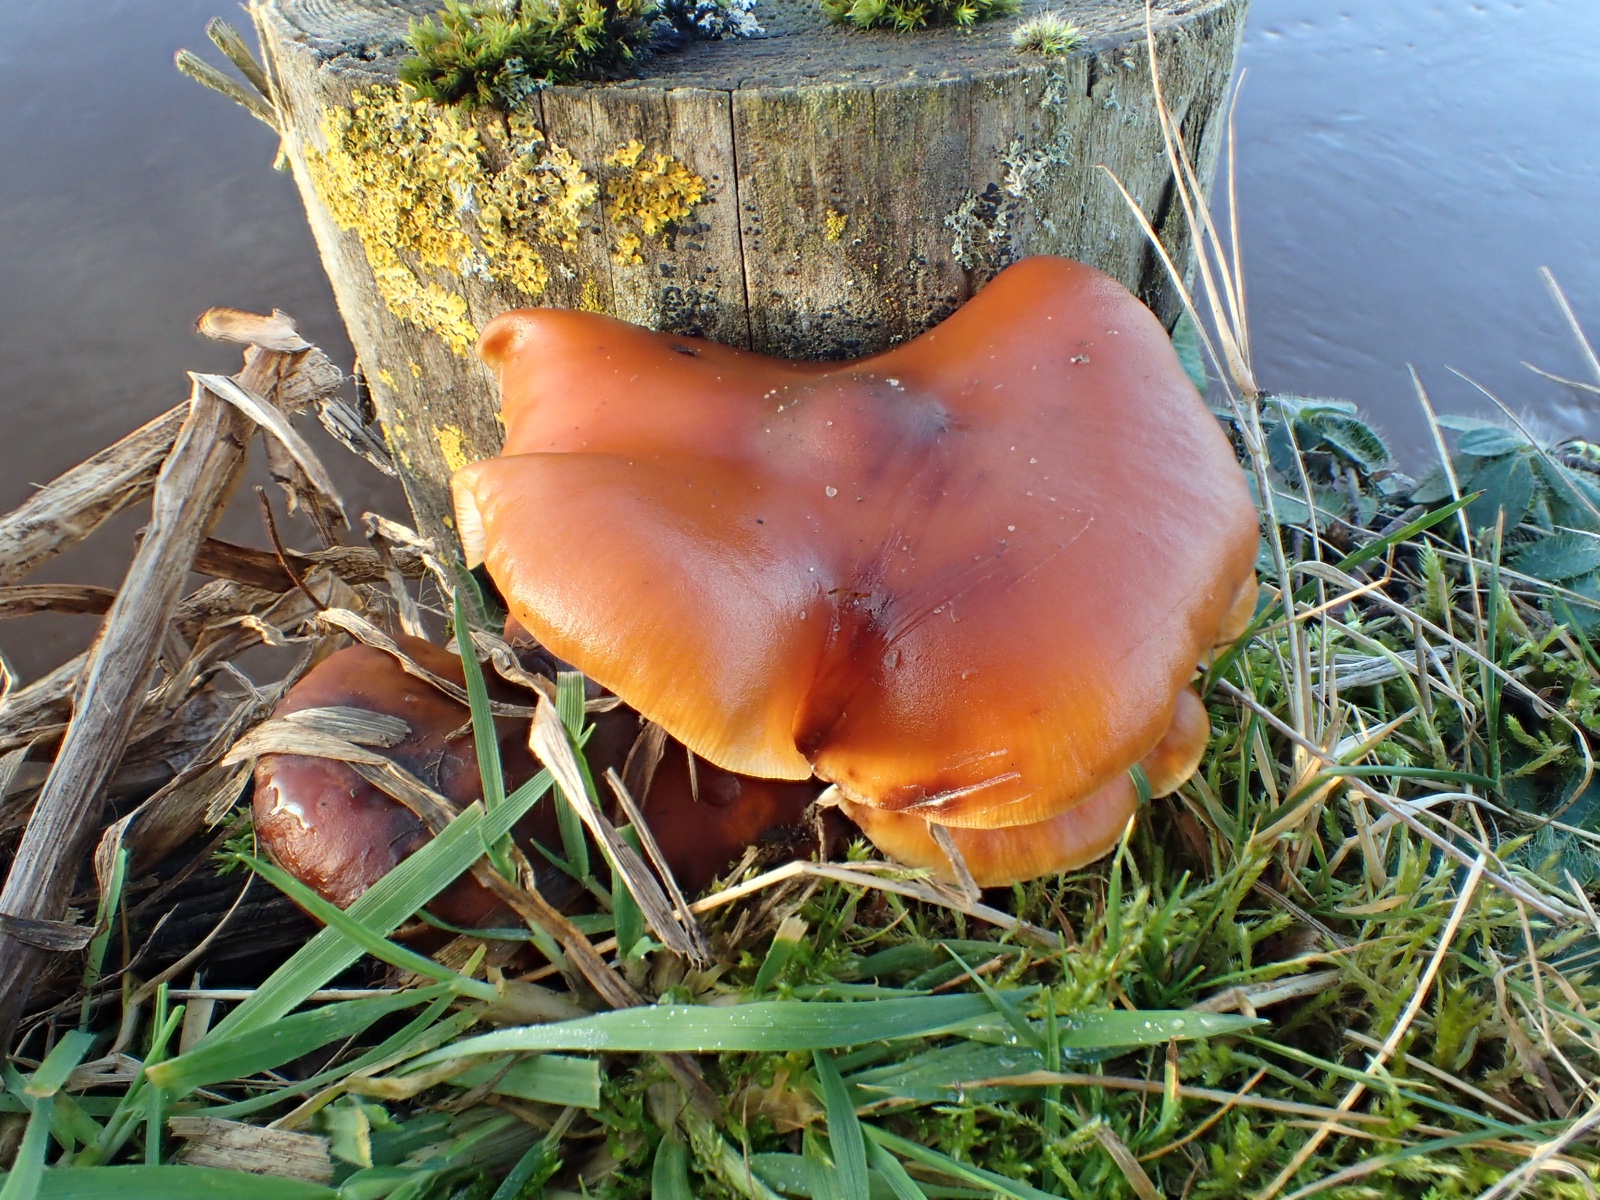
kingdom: Fungi
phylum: Basidiomycota
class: Agaricomycetes
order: Agaricales
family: Physalacriaceae
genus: Flammulina
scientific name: Flammulina
